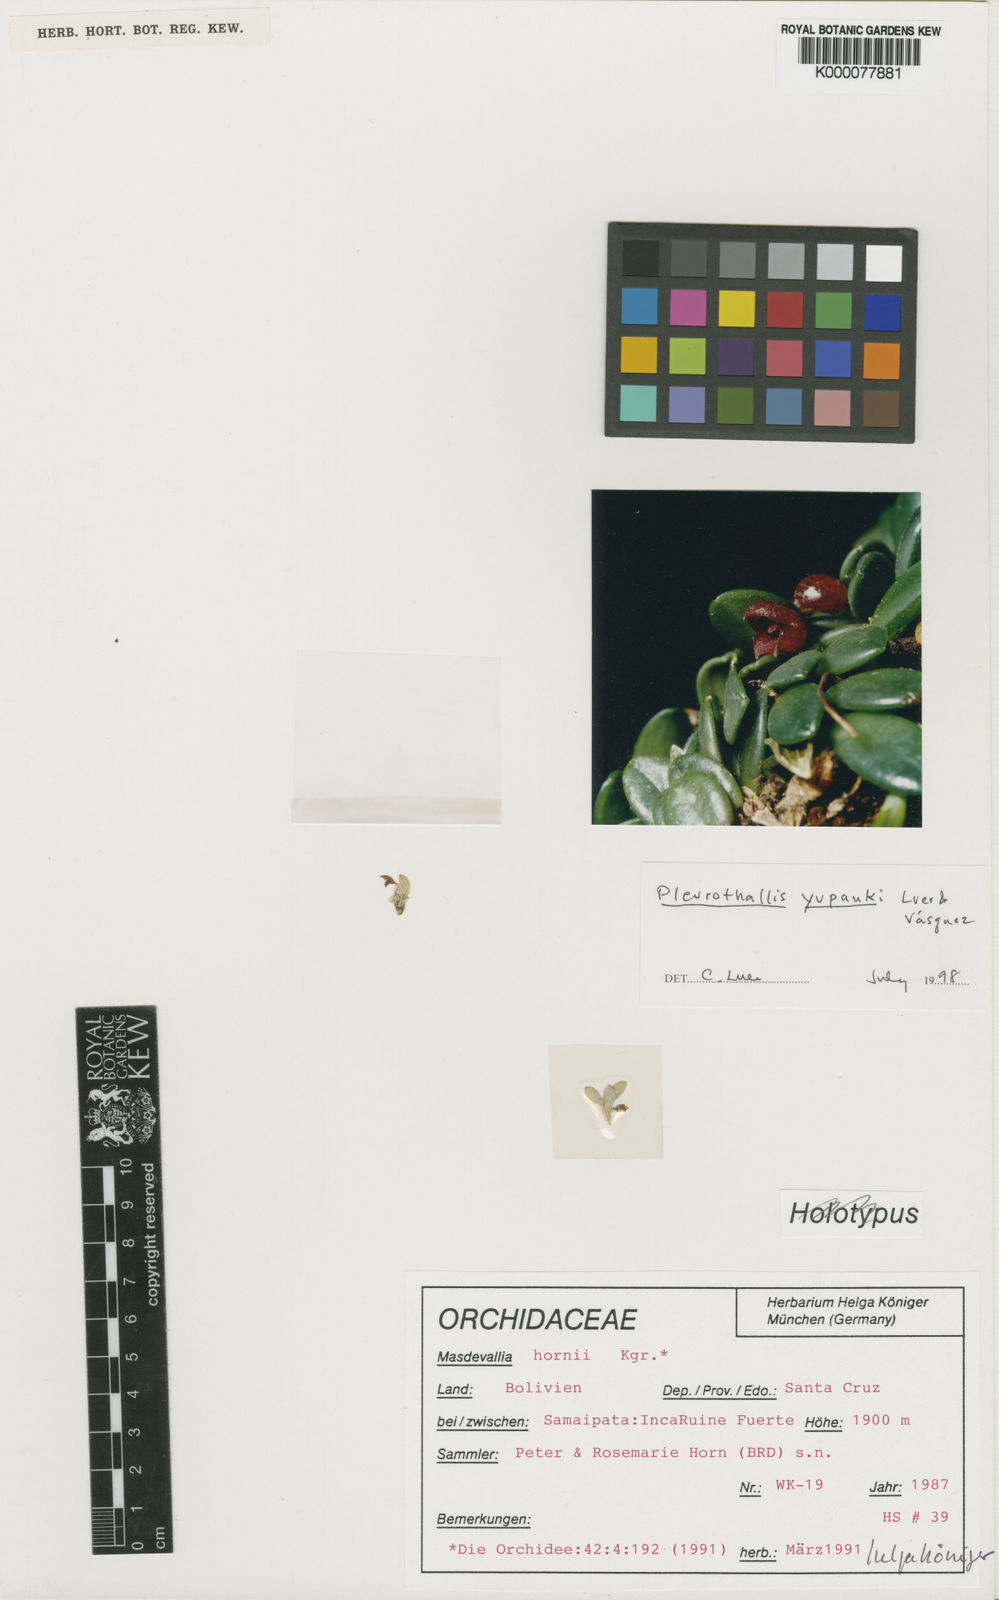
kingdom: Plantae
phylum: Tracheophyta
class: Liliopsida
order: Asparagales
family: Orchidaceae
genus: Masdevallia
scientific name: Masdevallia
